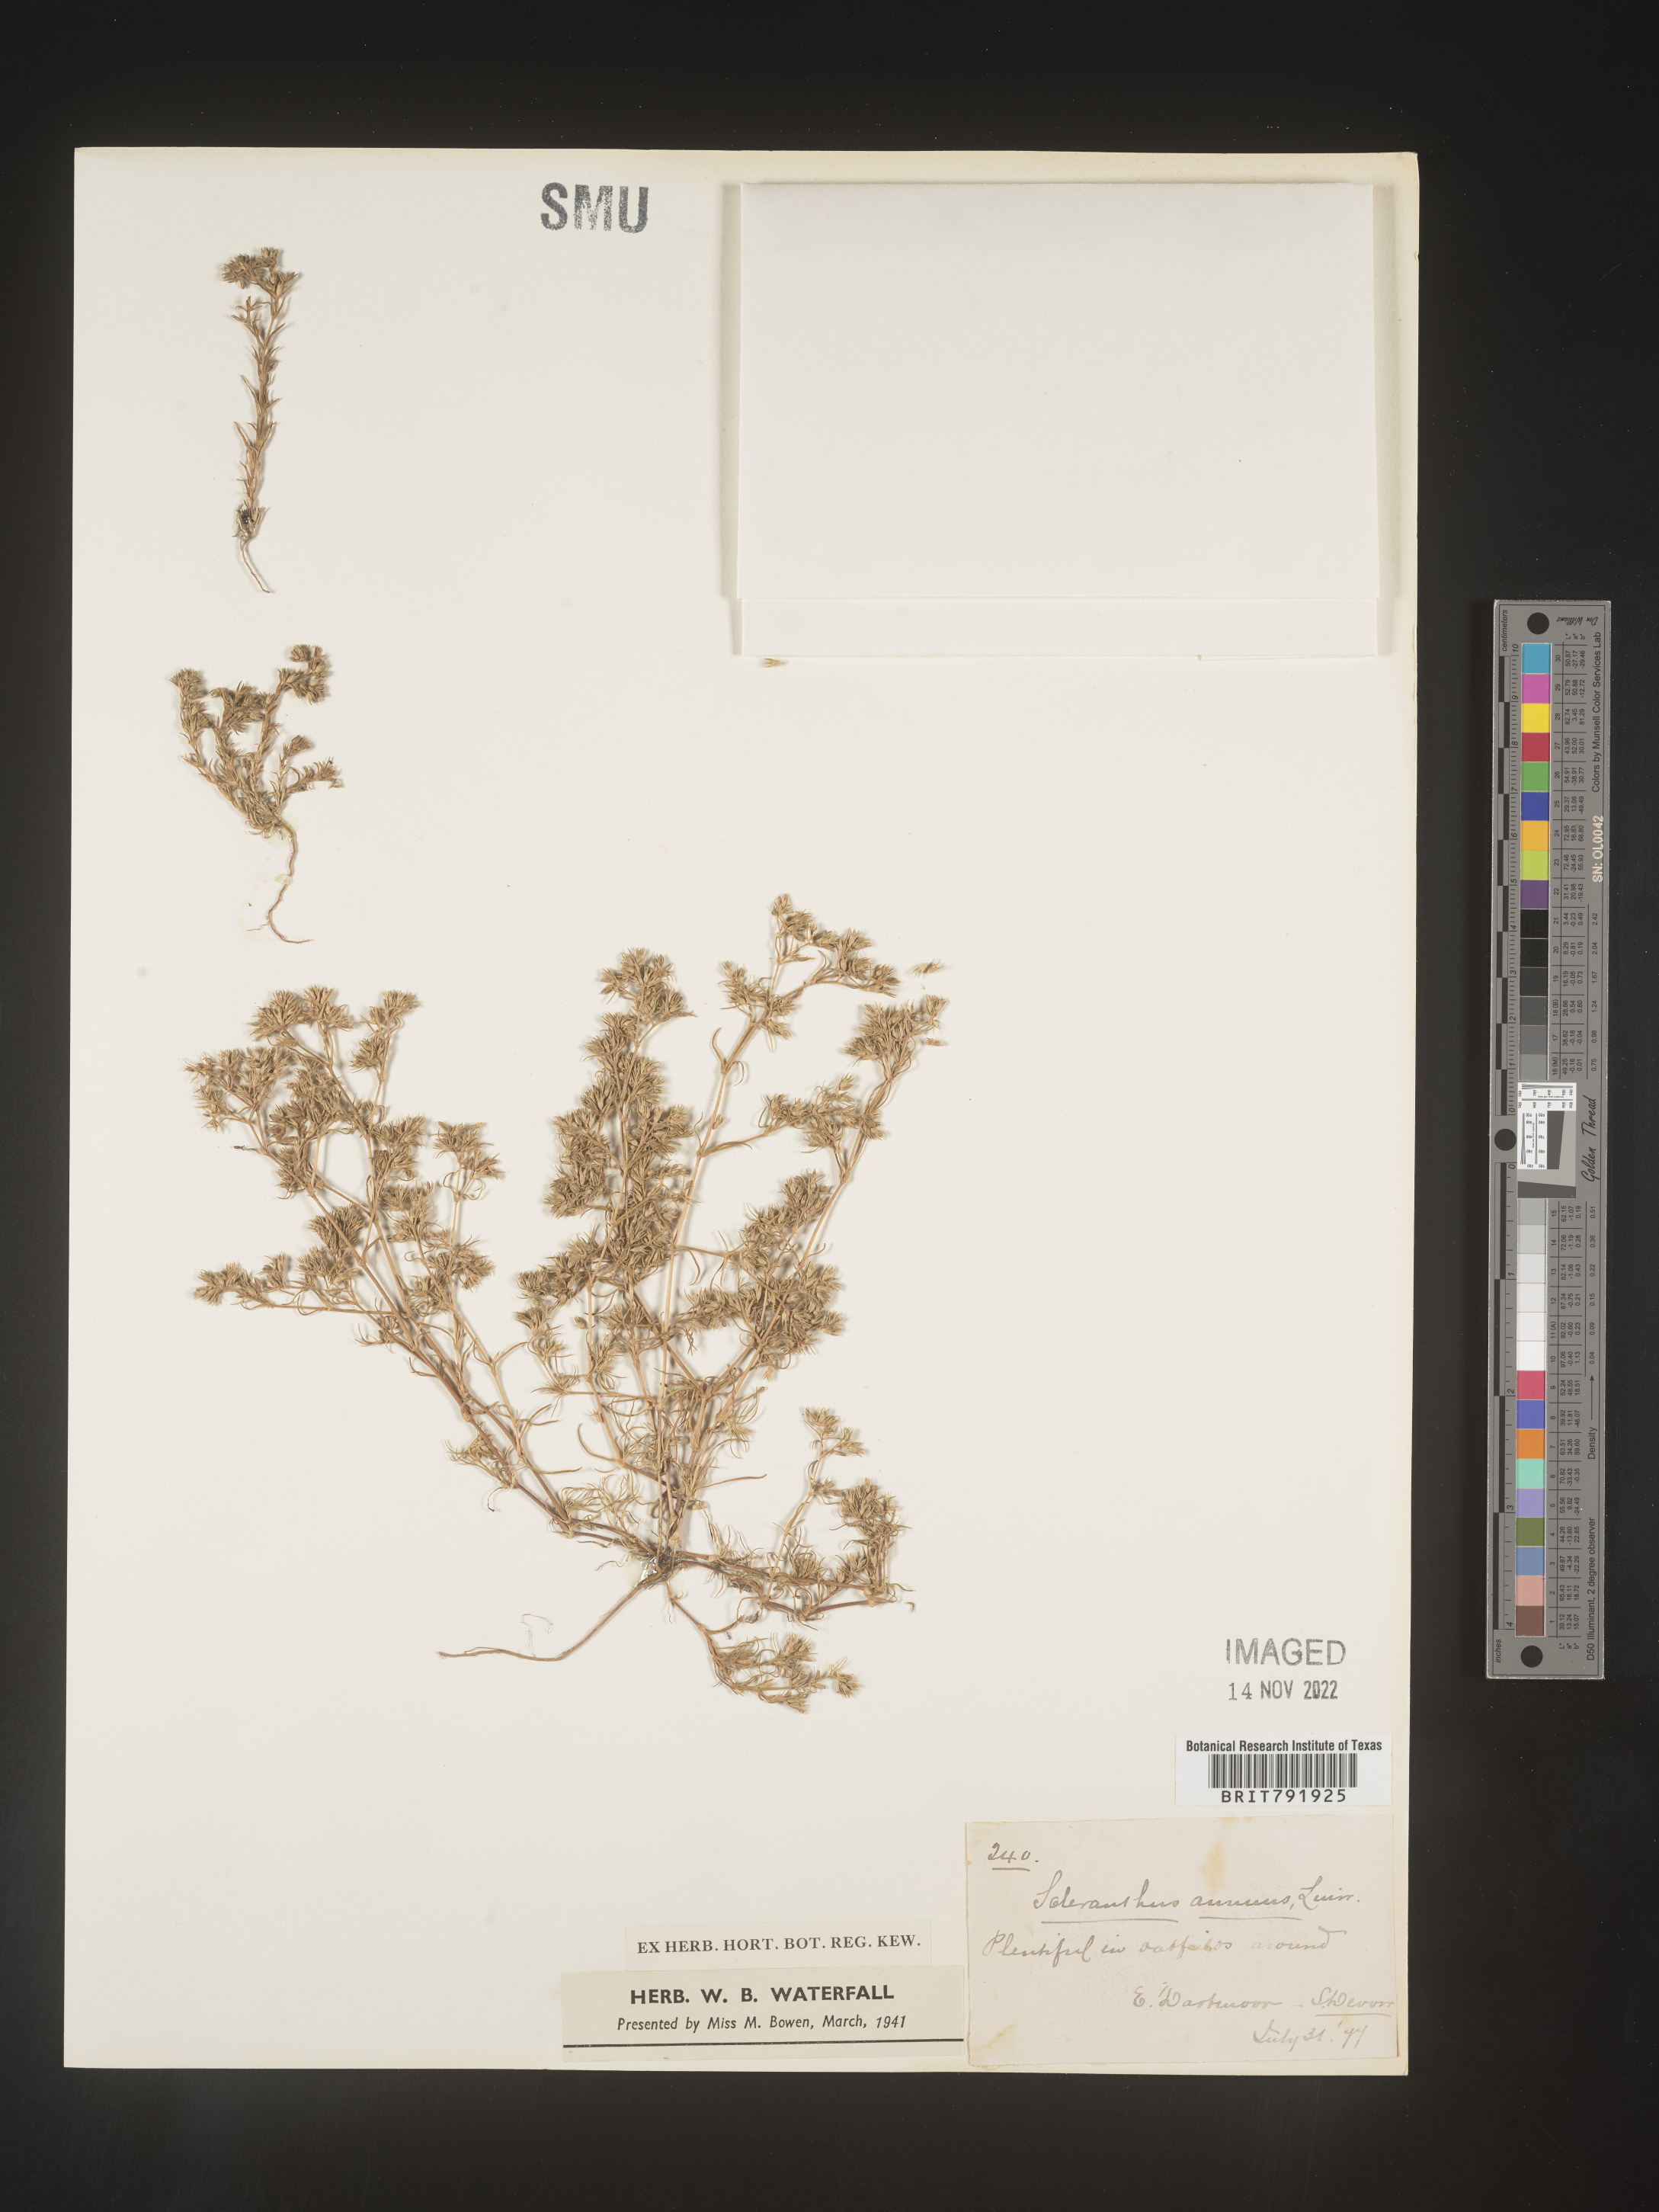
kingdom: Plantae
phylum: Tracheophyta
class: Magnoliopsida
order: Caryophyllales
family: Caryophyllaceae
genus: Scleranthus
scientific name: Scleranthus
